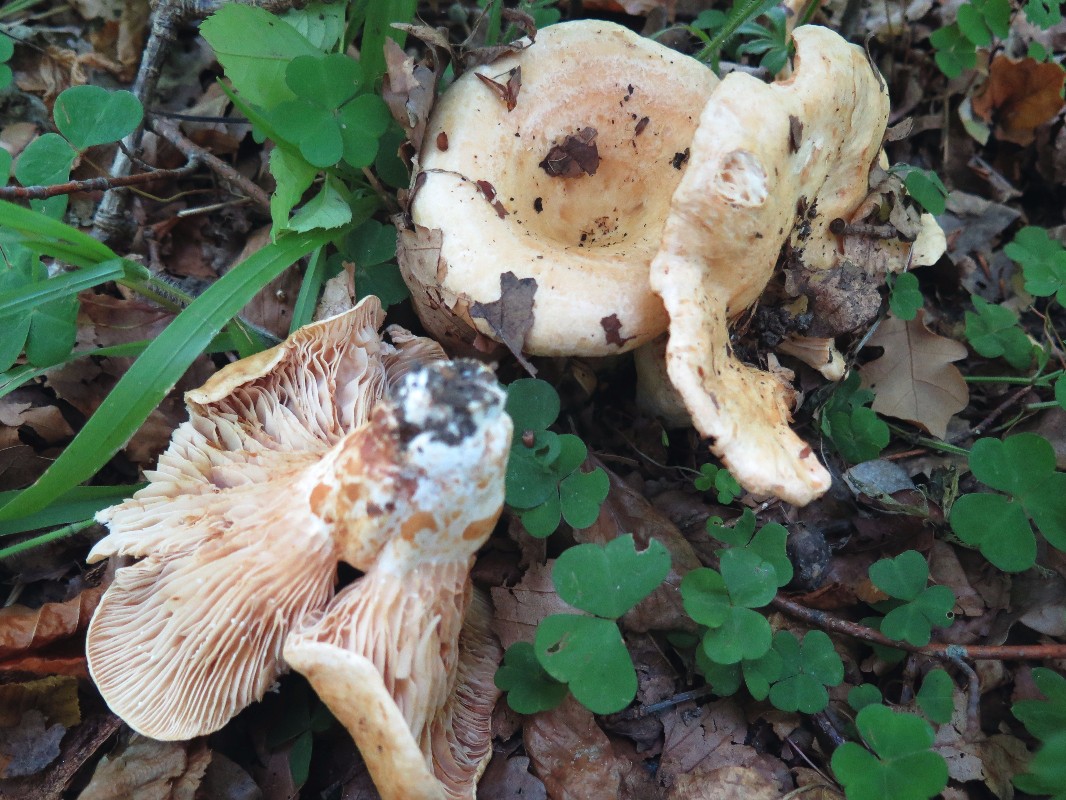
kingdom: Fungi
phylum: Basidiomycota
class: Agaricomycetes
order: Russulales
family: Russulaceae
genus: Lactarius
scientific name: Lactarius acerrimus
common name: brændende mælkehat
